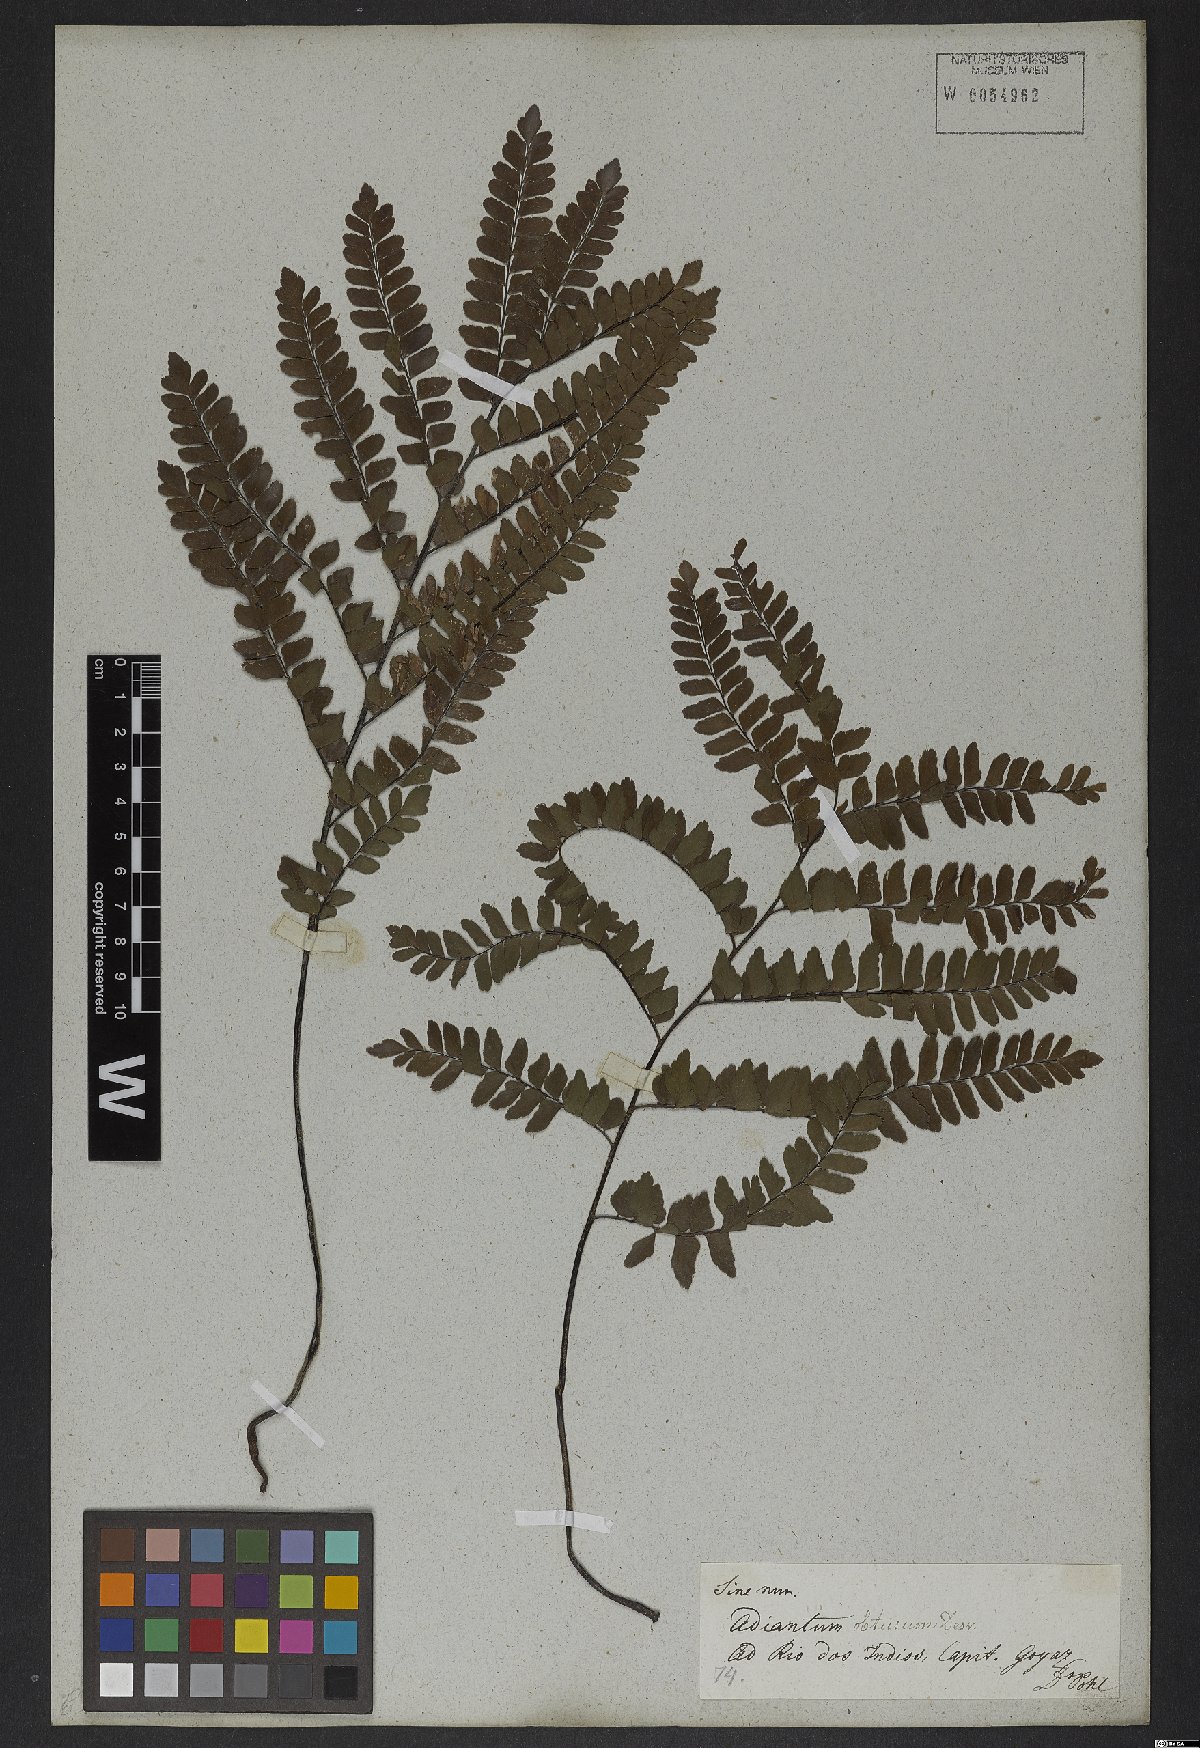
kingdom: Plantae
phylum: Tracheophyta
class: Polypodiopsida
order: Polypodiales
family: Pteridaceae
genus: Adiantum
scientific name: Adiantum serratodentatum
